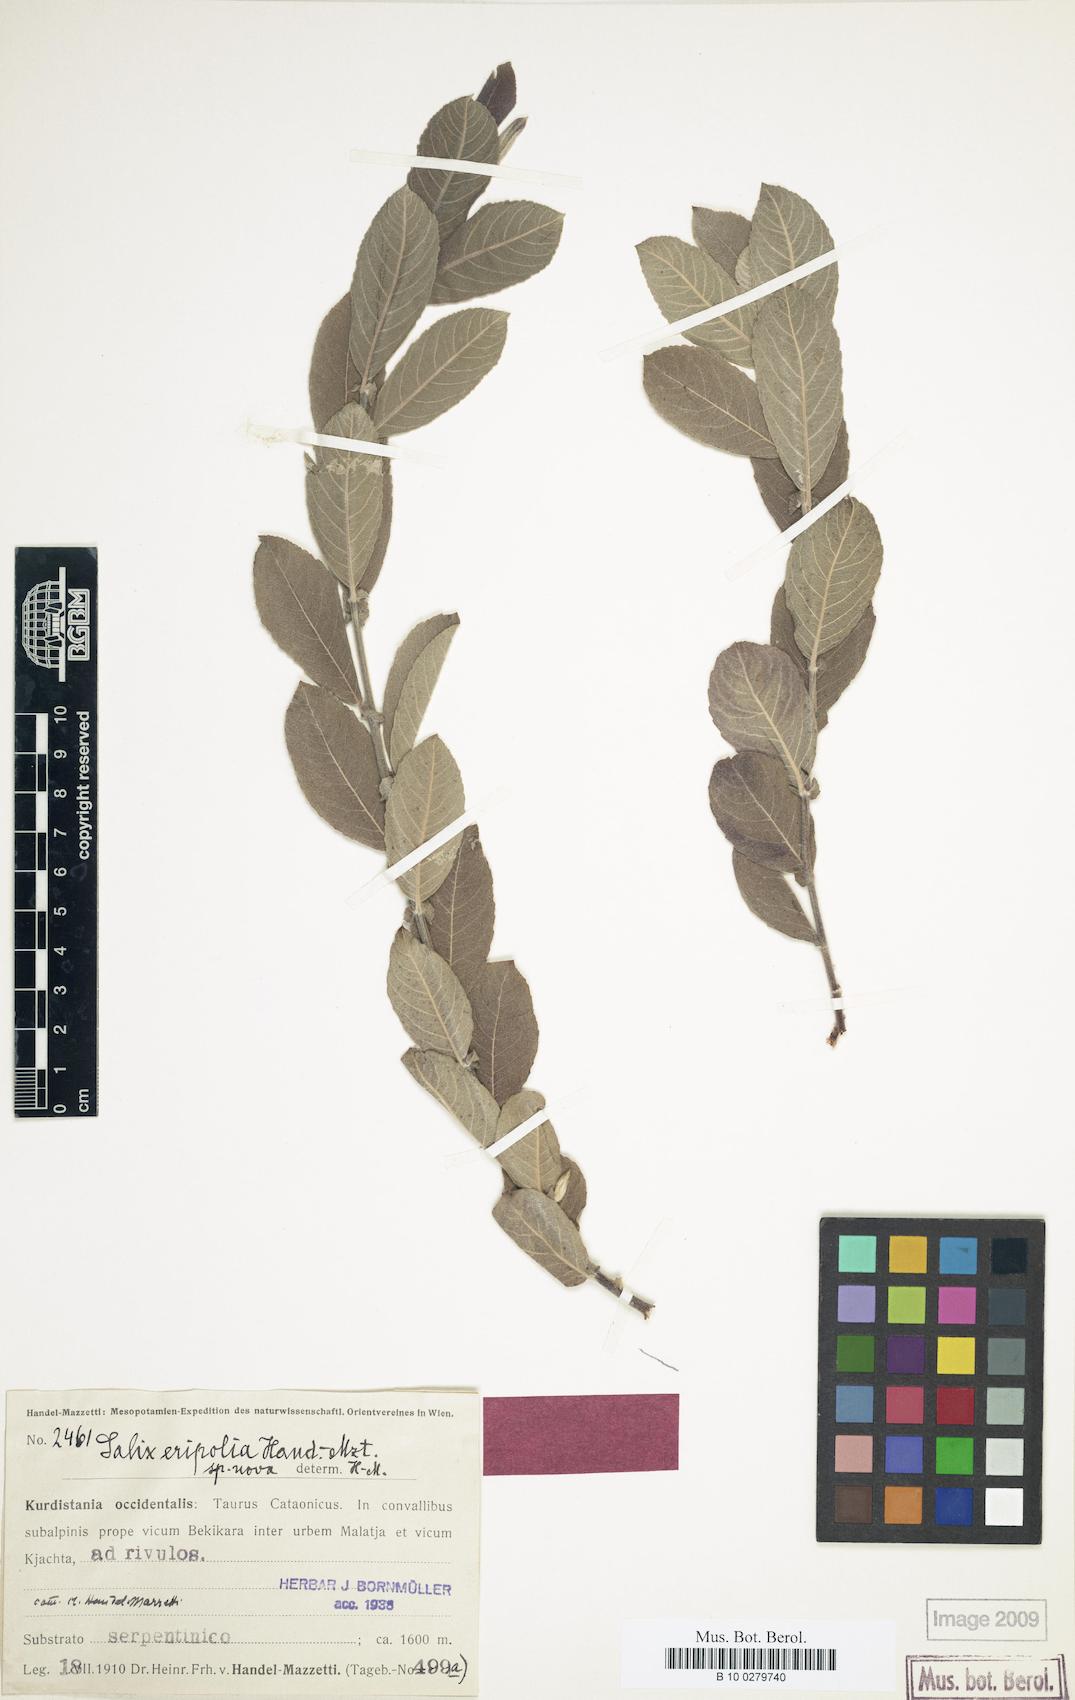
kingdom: Plantae
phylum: Tracheophyta
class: Magnoliopsida
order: Malpighiales
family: Salicaceae
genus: Salix
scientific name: Salix eripolia
